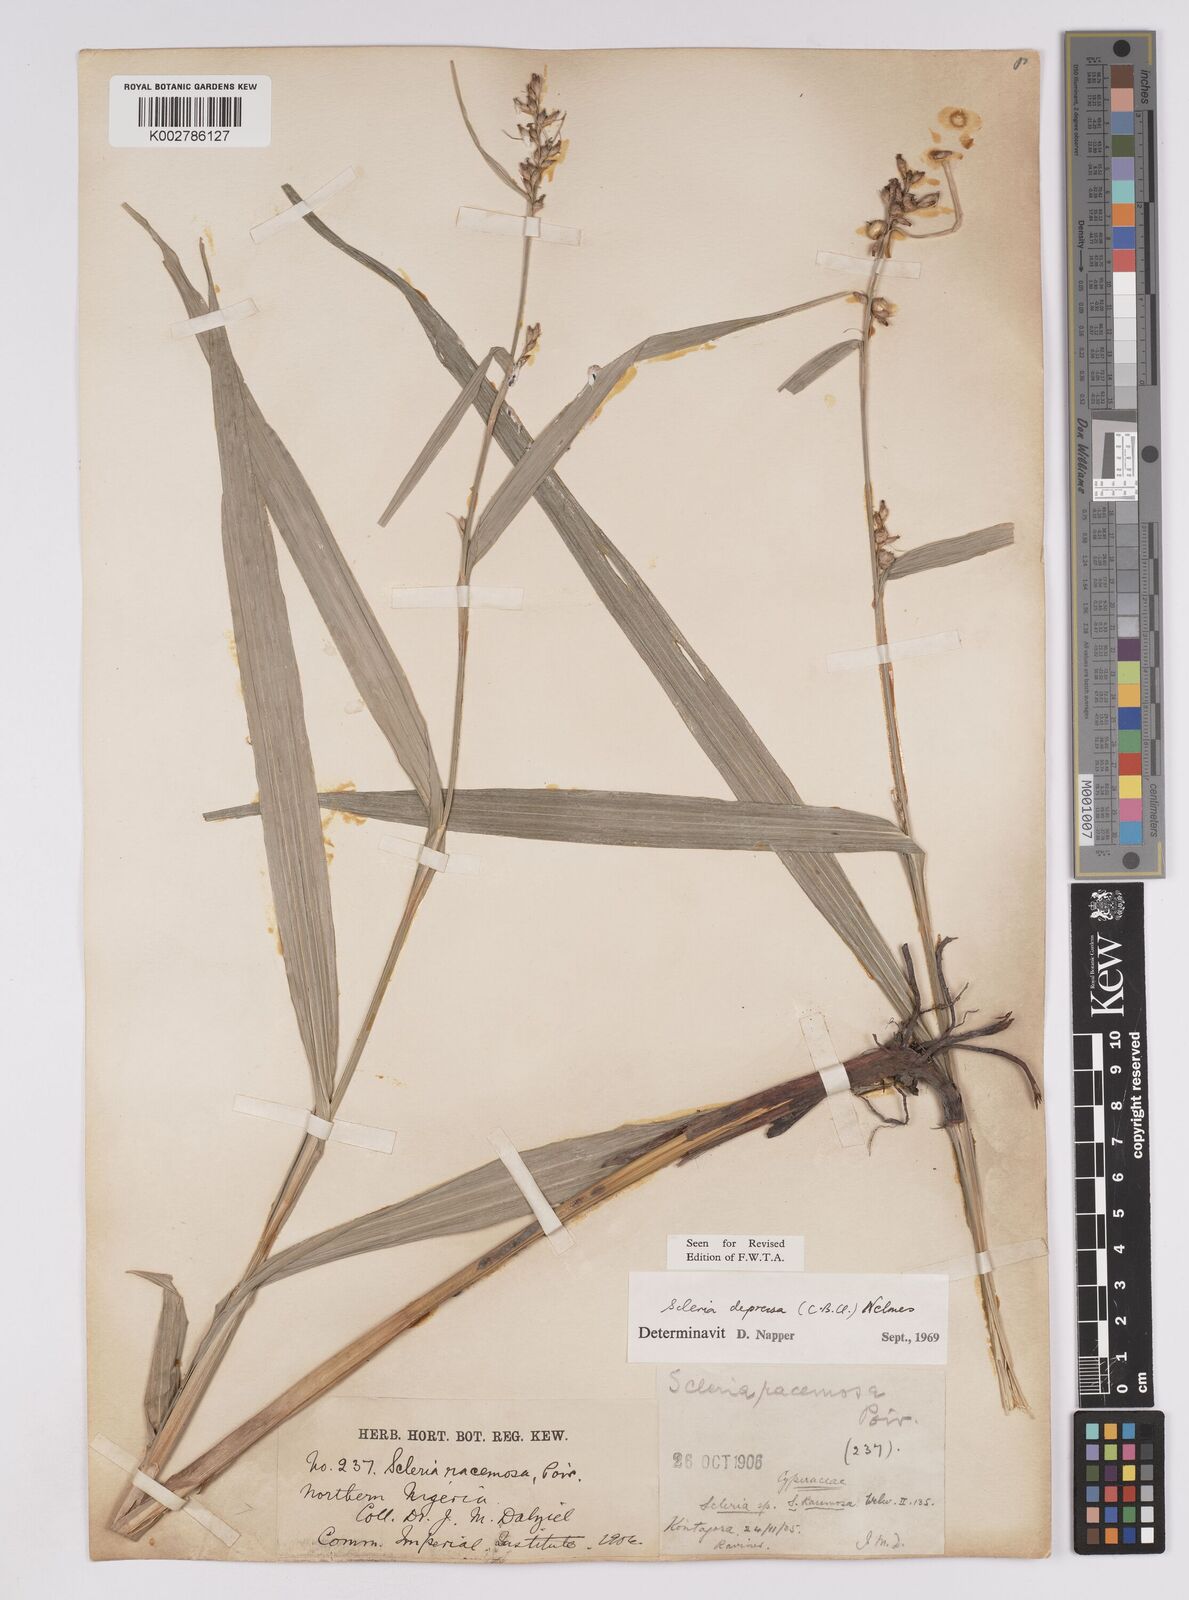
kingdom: Plantae
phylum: Tracheophyta
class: Liliopsida
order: Poales
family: Cyperaceae
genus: Scleria
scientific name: Scleria depressa
